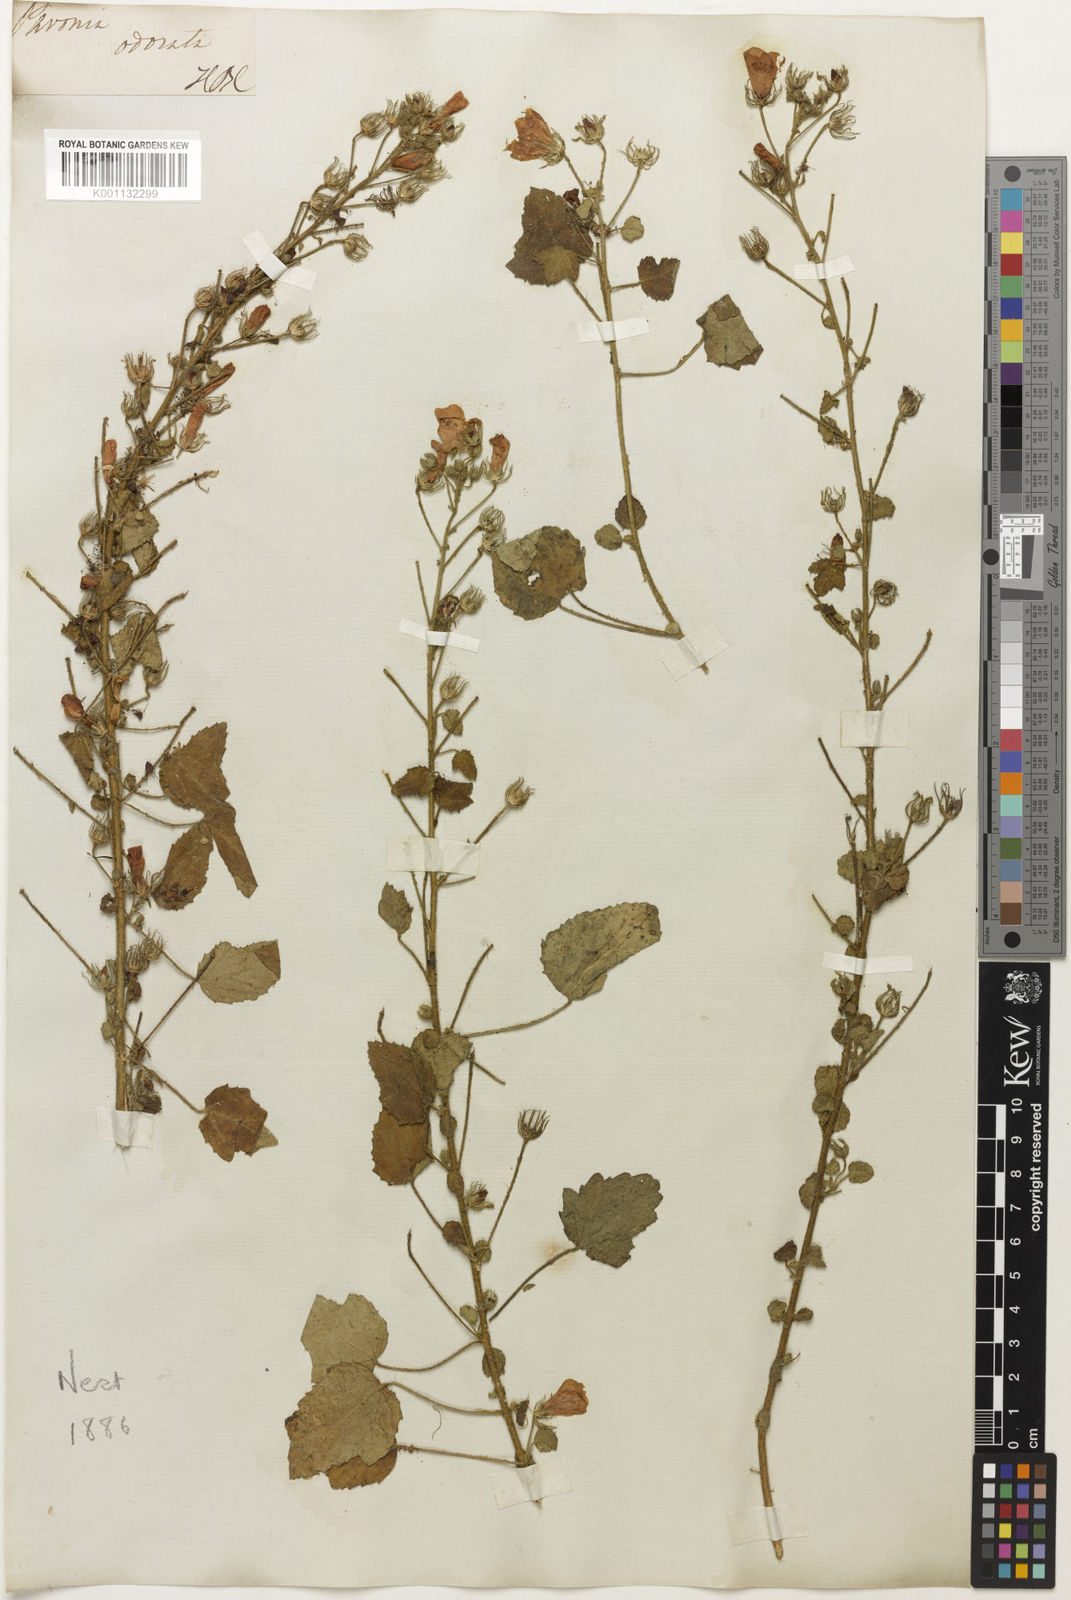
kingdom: Plantae
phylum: Tracheophyta
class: Magnoliopsida
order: Malvales
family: Malvaceae
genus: Pavonia
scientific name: Pavonia
